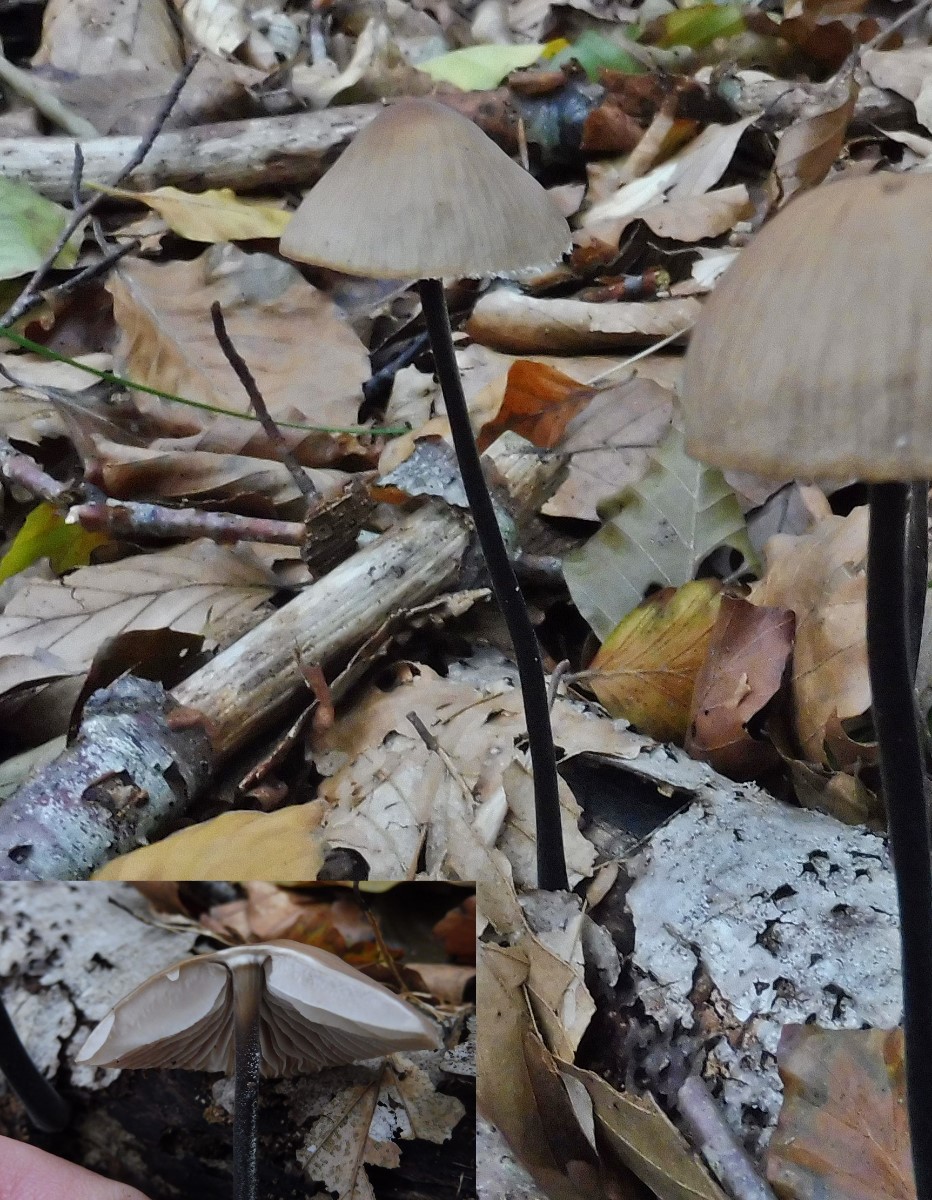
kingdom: Fungi
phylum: Basidiomycota
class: Agaricomycetes
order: Agaricales
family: Omphalotaceae
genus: Mycetinis
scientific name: Mycetinis alliaceus
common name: stor løghat
